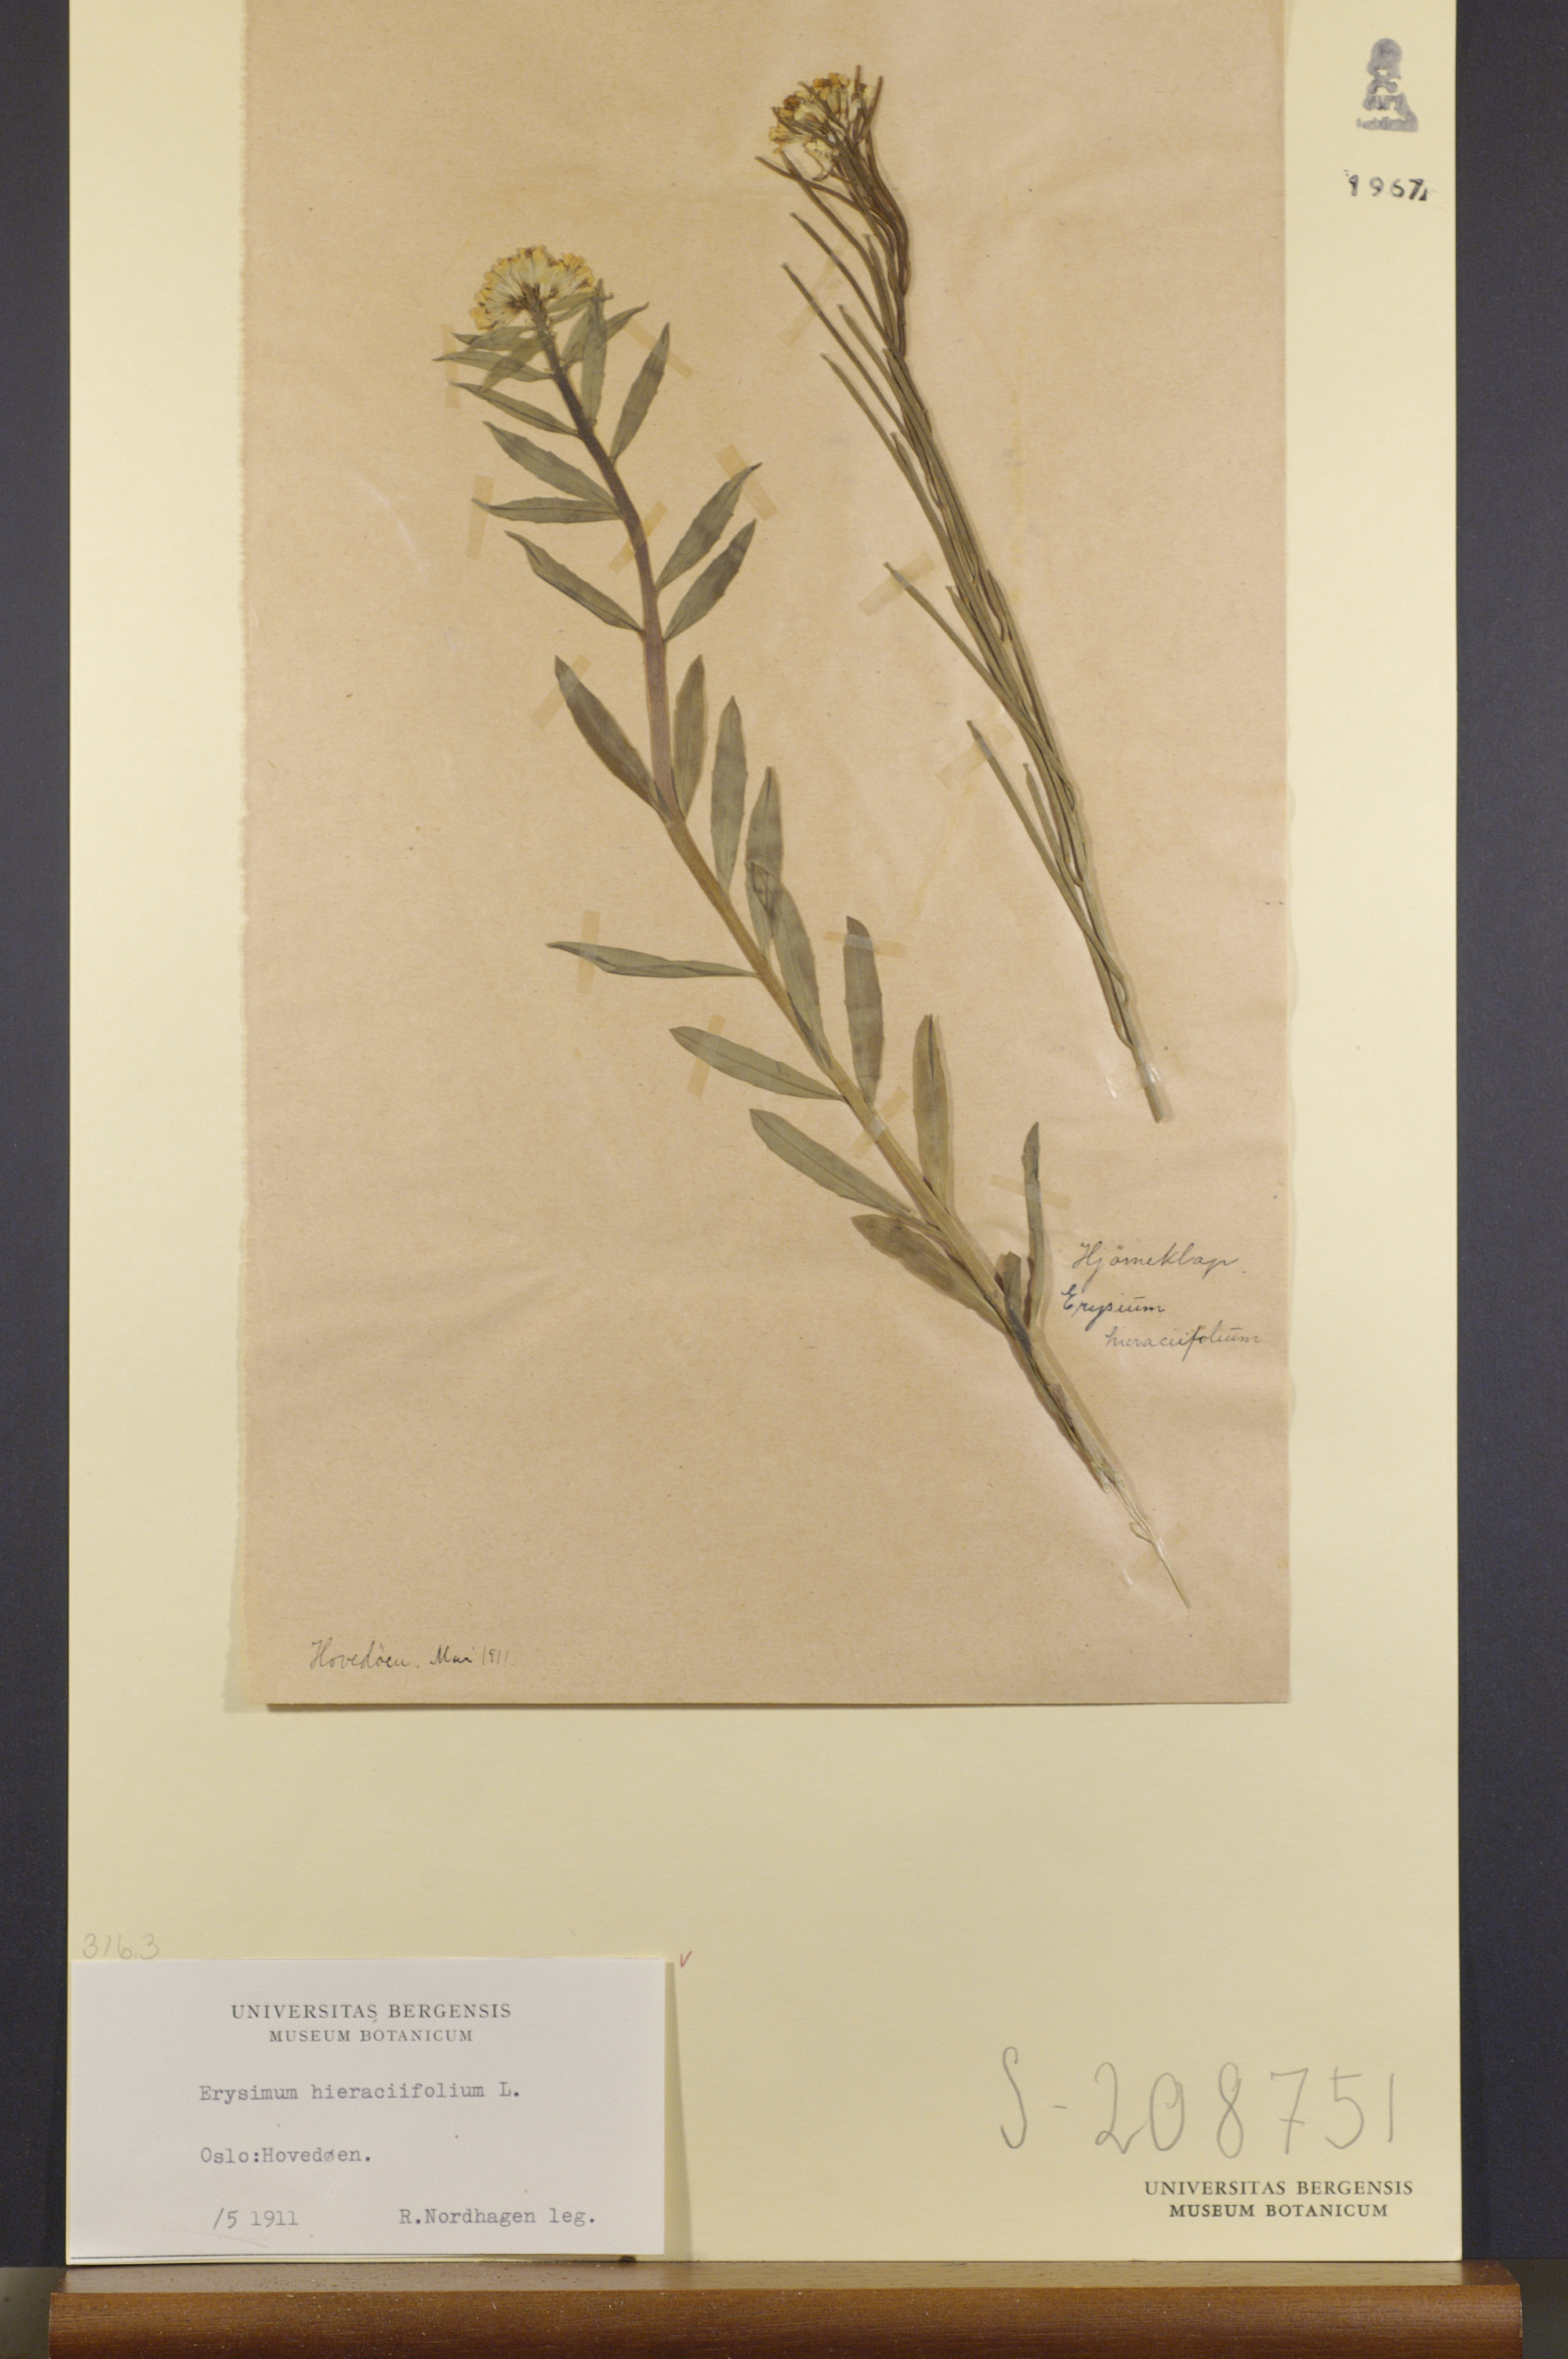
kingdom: Plantae
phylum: Tracheophyta
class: Magnoliopsida
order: Brassicales
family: Brassicaceae
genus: Erysimum
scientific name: Erysimum hieraciifolium
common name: European wallflower
